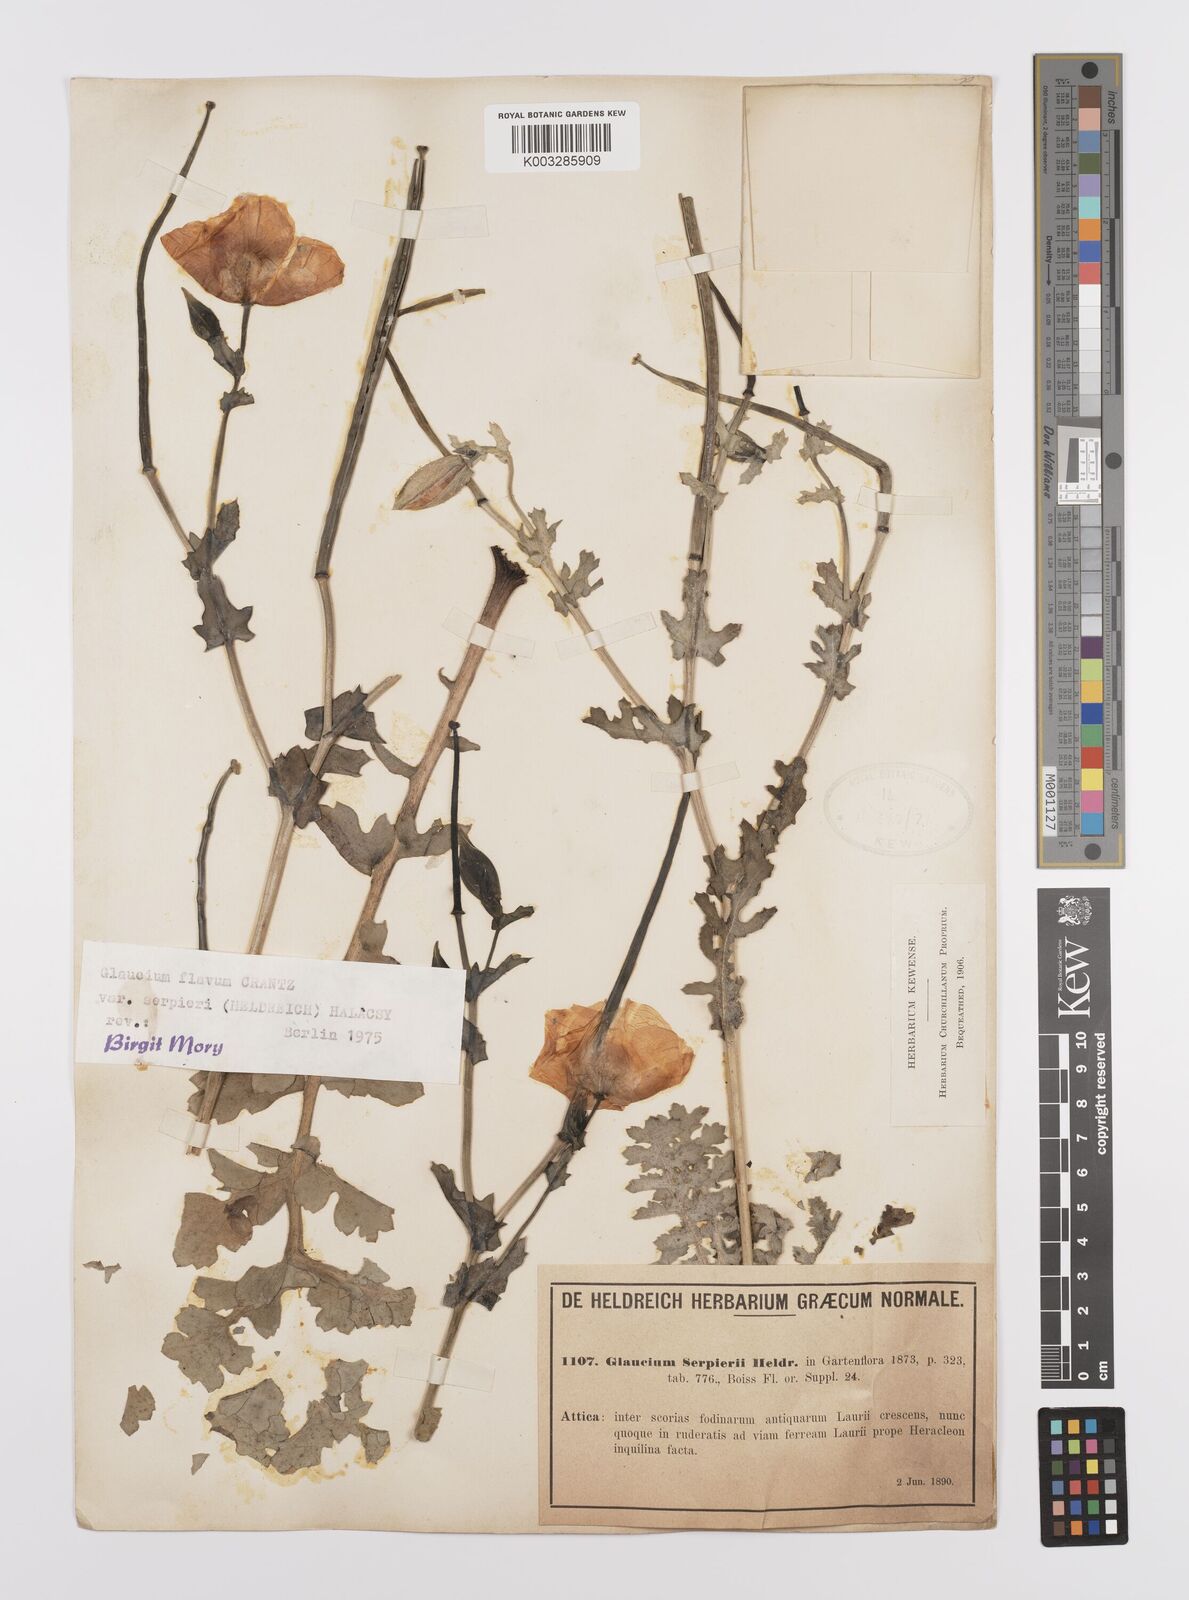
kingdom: Plantae
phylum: Tracheophyta
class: Magnoliopsida
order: Ranunculales
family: Papaveraceae
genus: Glaucium
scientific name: Glaucium flavum
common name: Yellow horned-poppy
